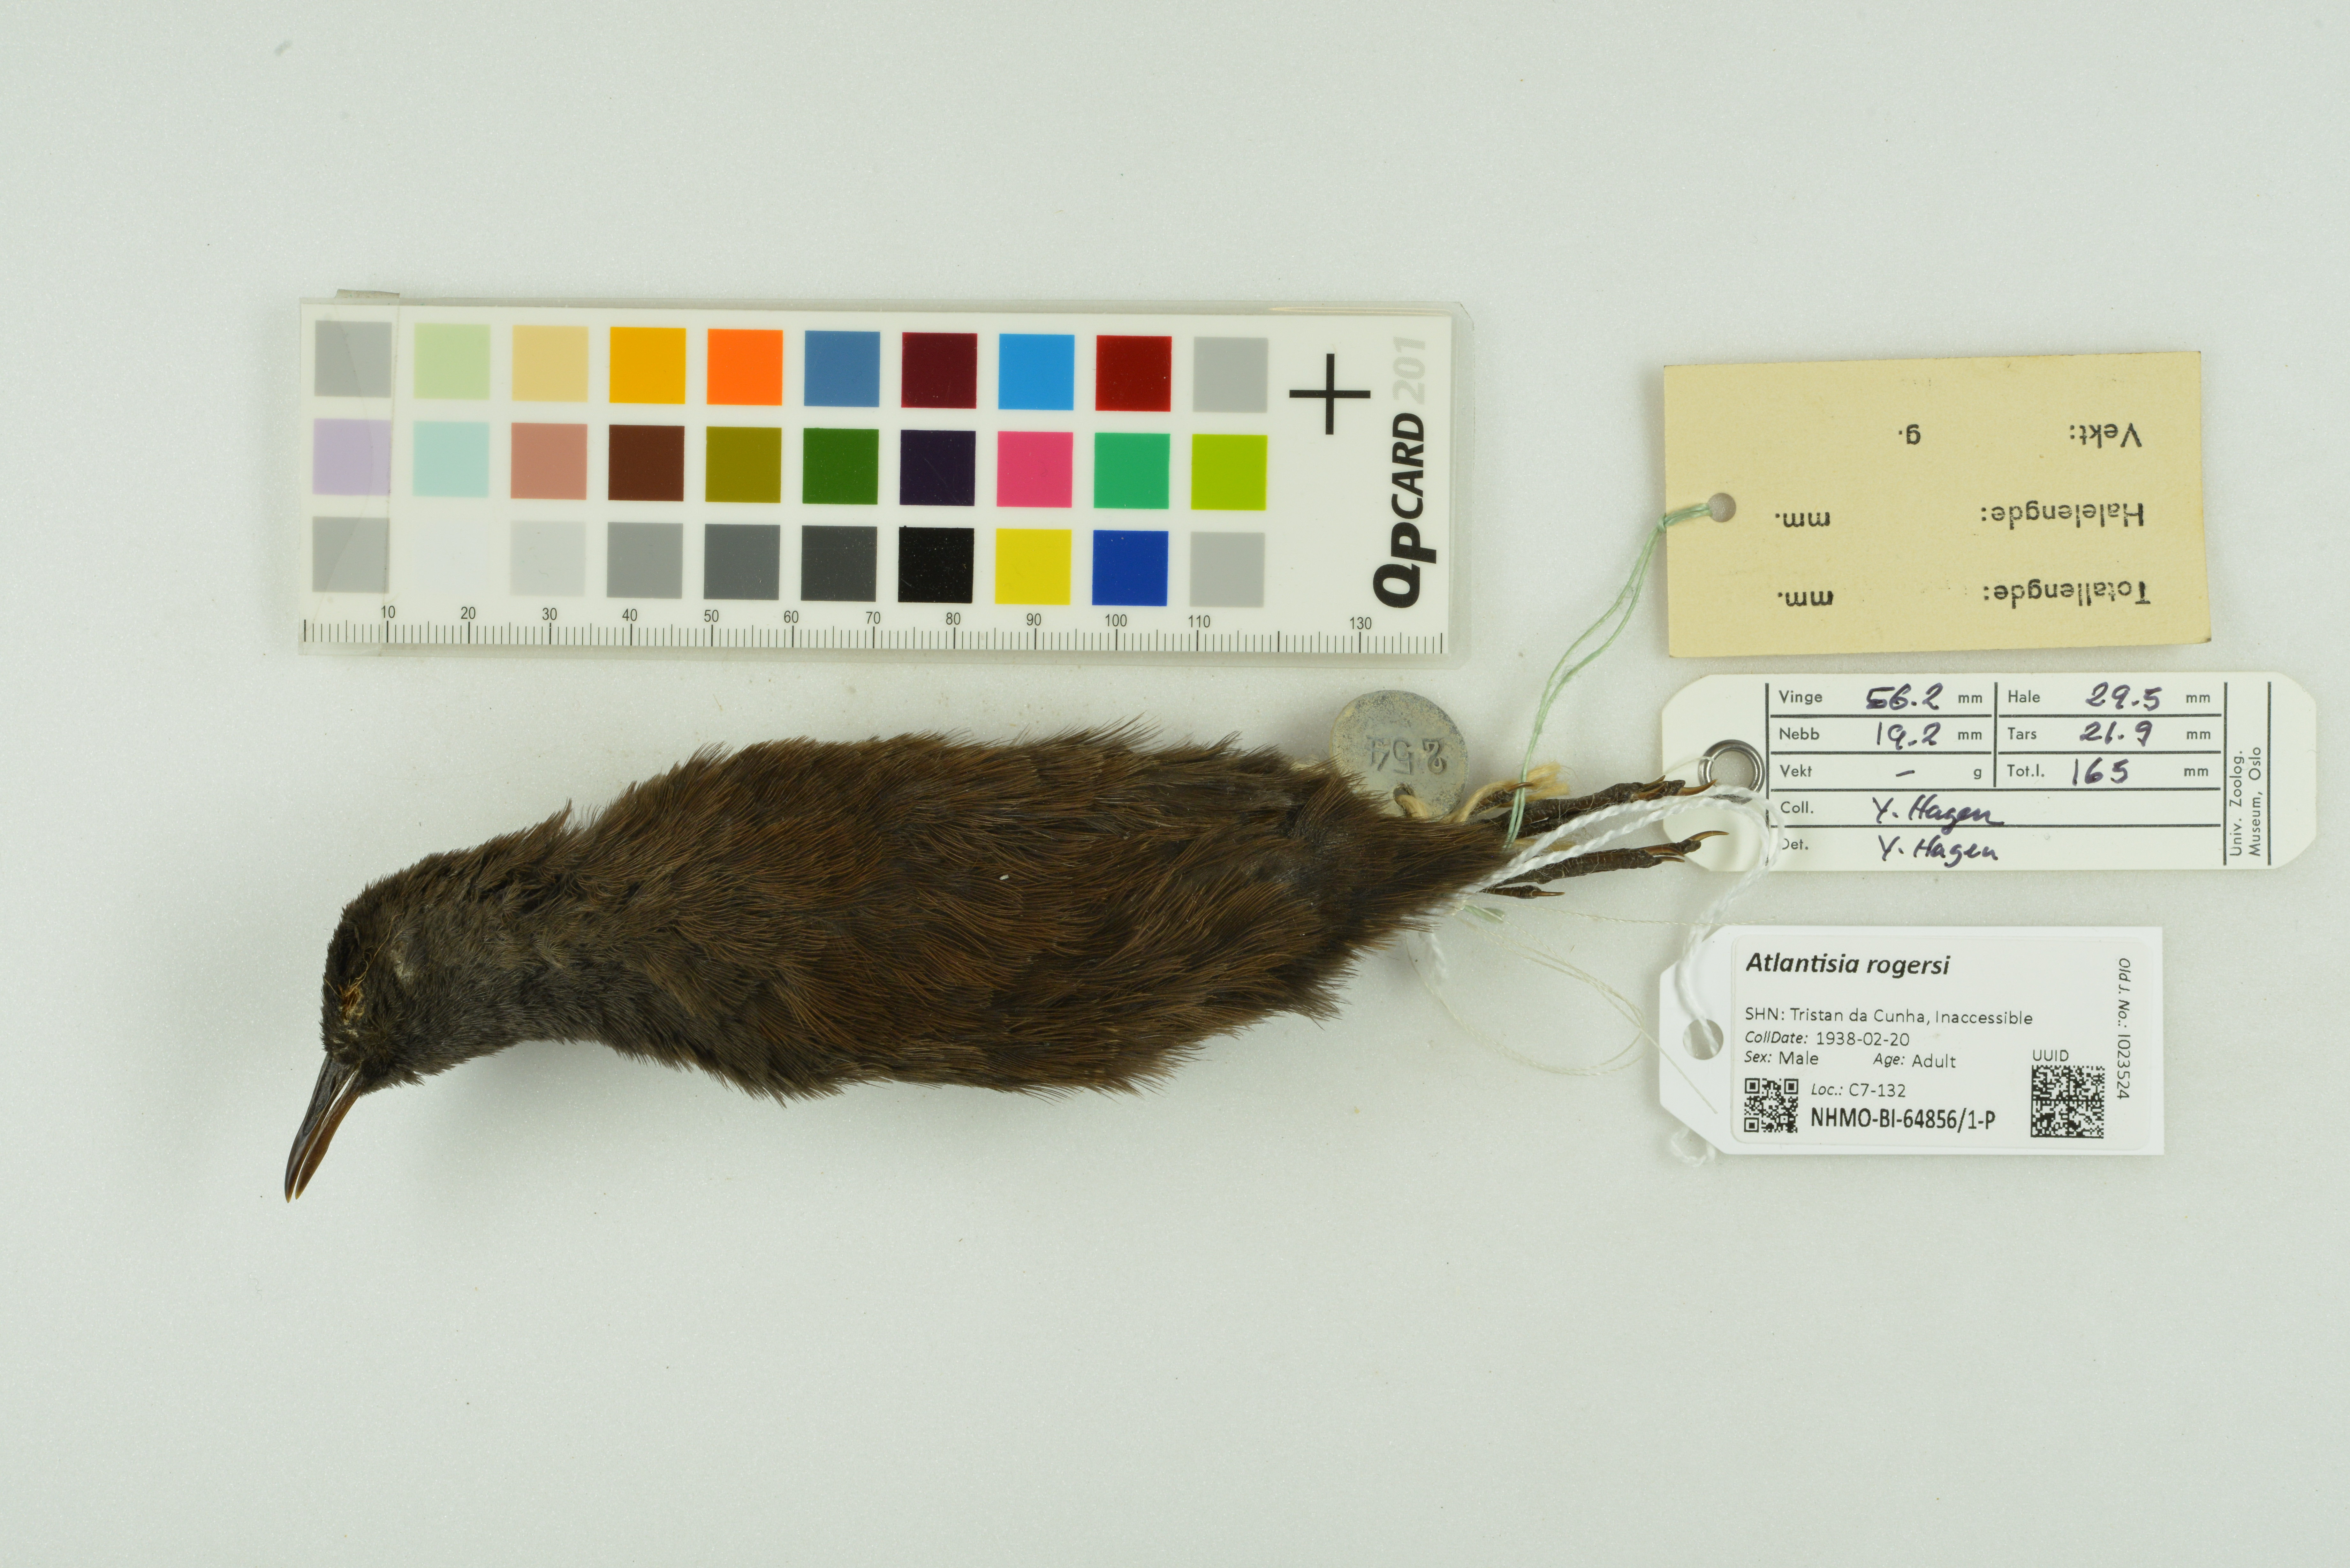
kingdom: Animalia
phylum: Chordata
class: Aves
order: Gruiformes
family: Rallidae
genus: Atlantisia
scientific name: Atlantisia rogersi
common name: Inaccessible island rail
